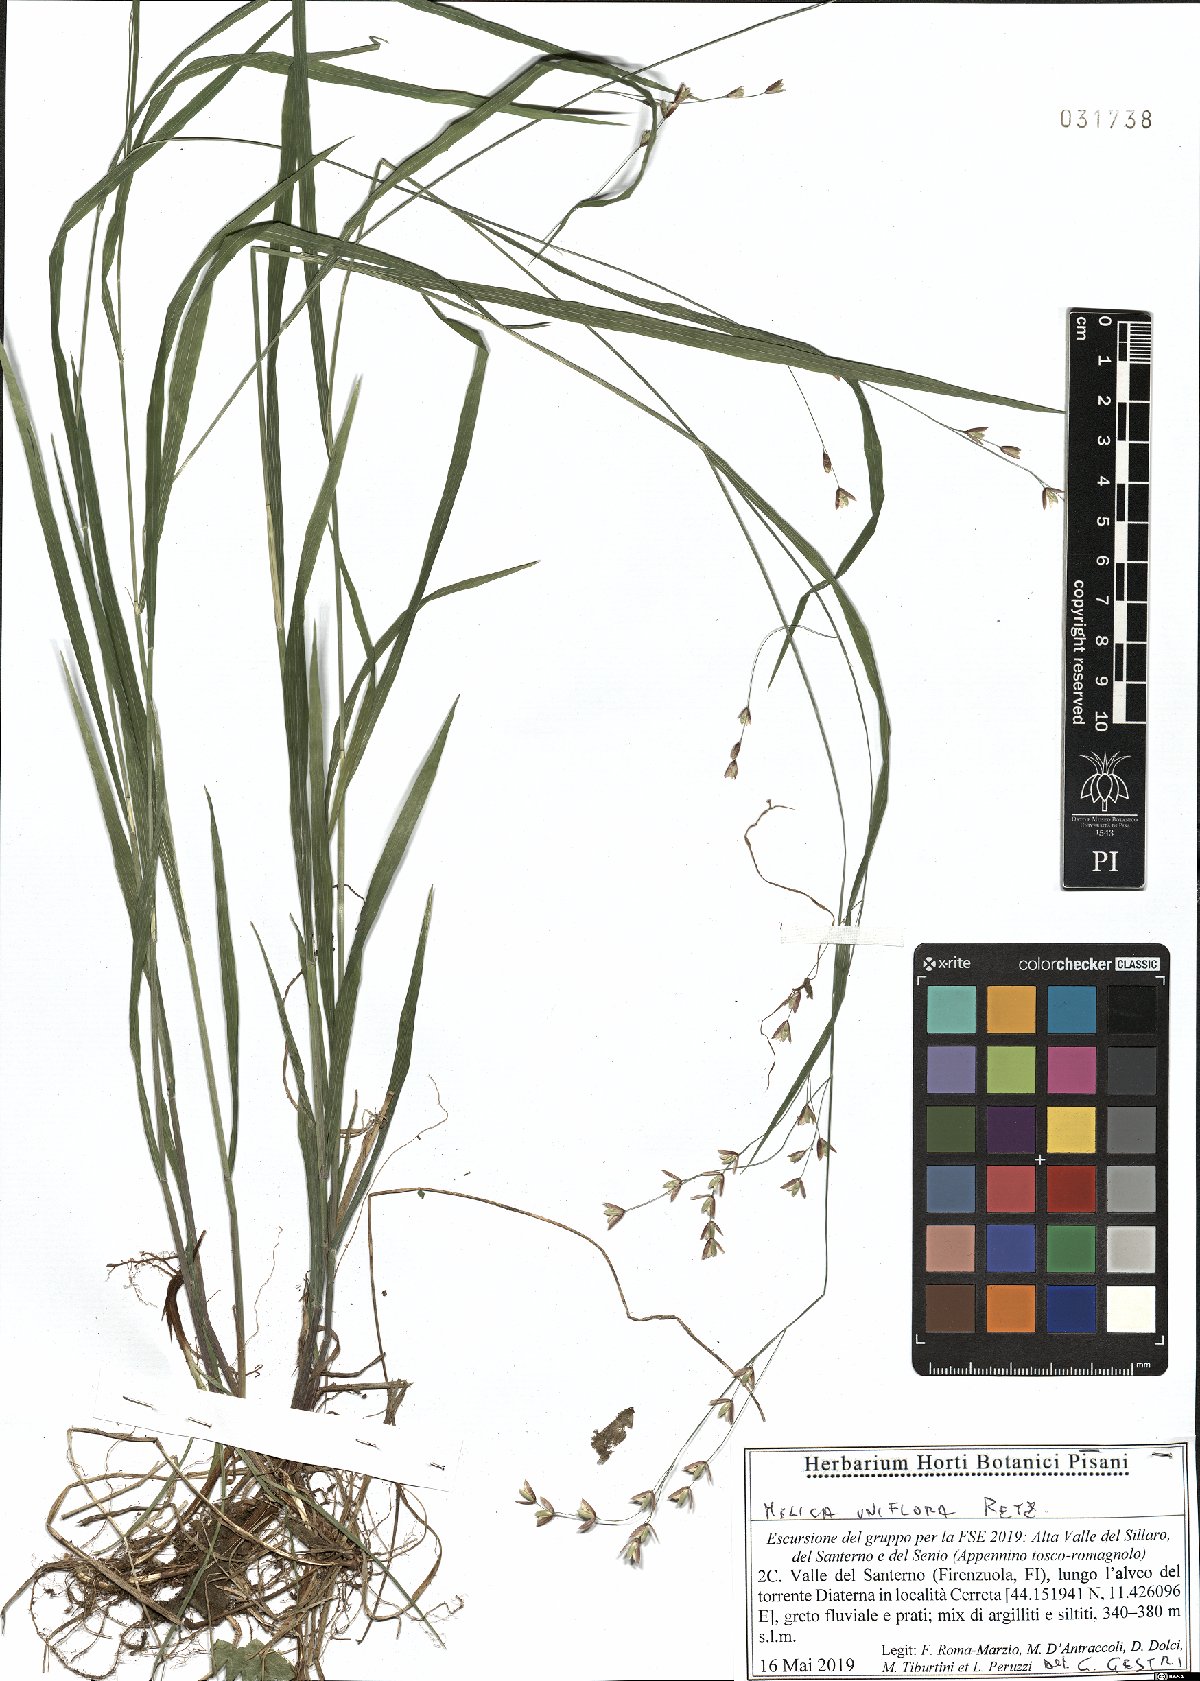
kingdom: Plantae
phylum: Tracheophyta
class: Liliopsida
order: Poales
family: Poaceae
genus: Melica
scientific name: Melica uniflora
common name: Wood melick
